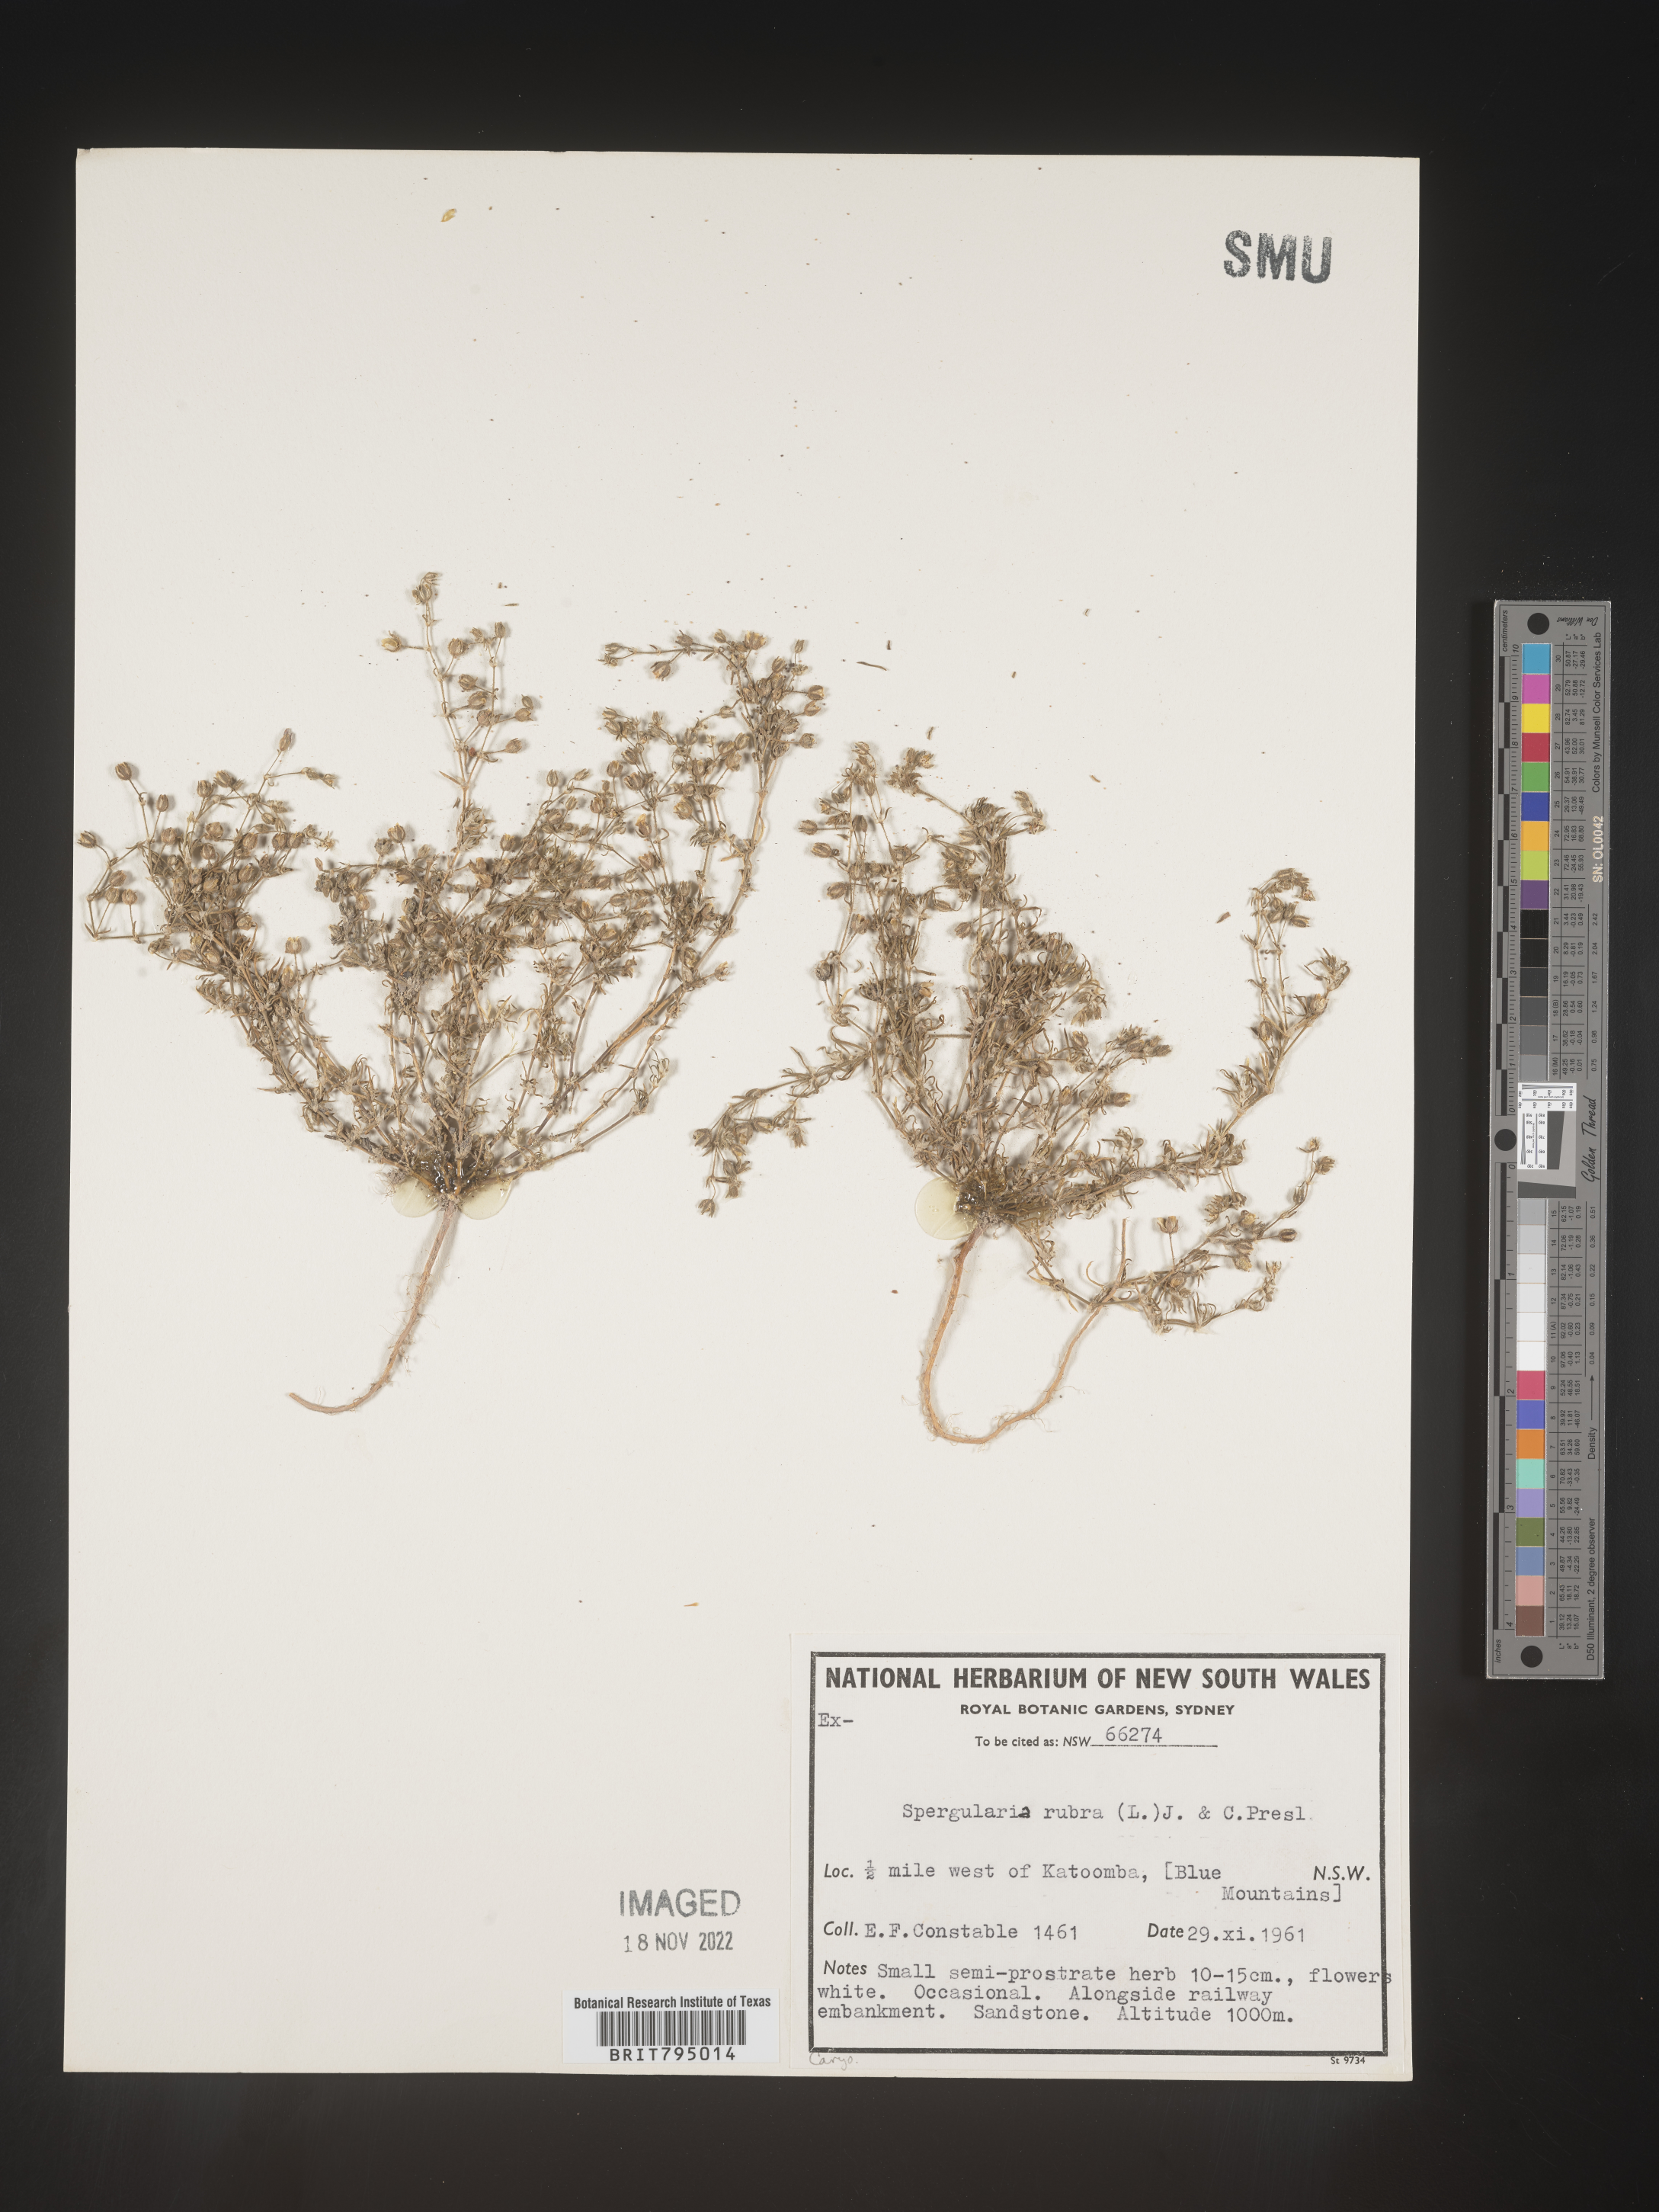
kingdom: Plantae
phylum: Tracheophyta
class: Magnoliopsida
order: Caryophyllales
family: Caryophyllaceae
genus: Spergularia
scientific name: Spergularia rubra
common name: Red sand-spurrey
